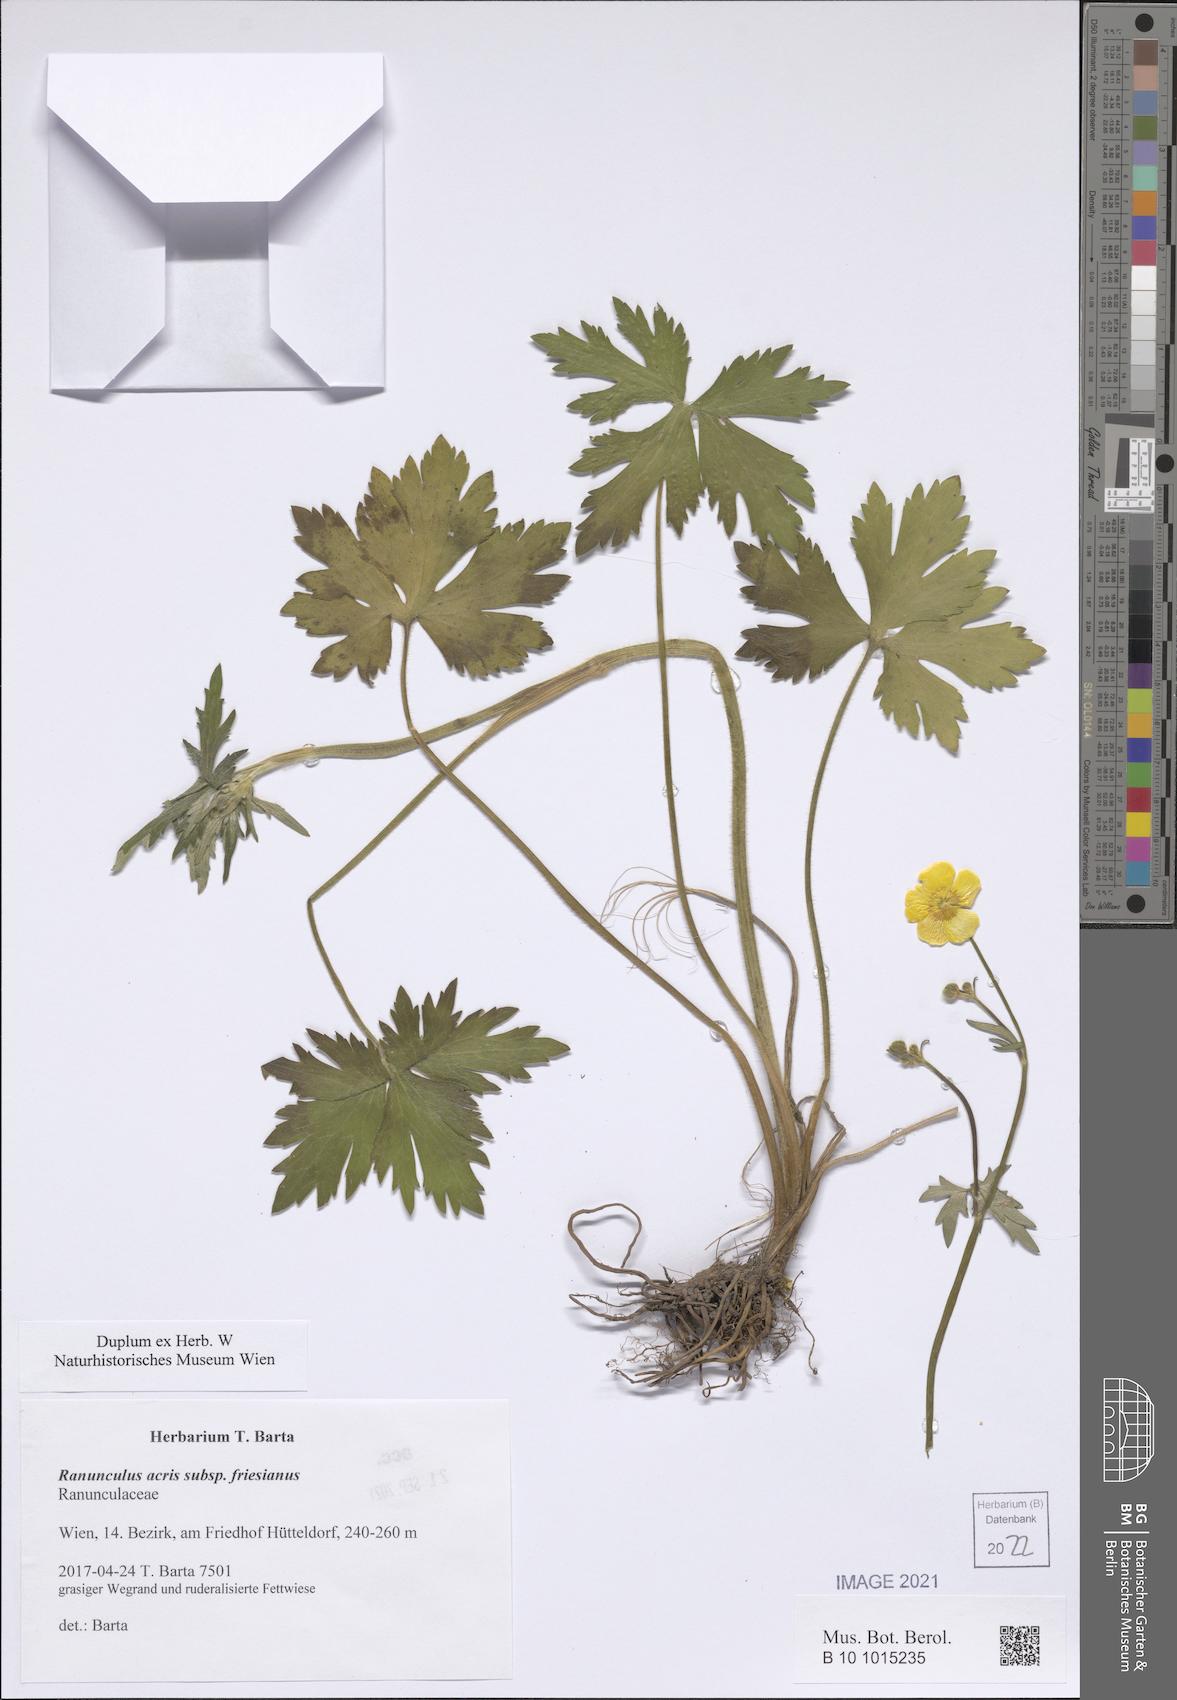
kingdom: Plantae
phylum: Tracheophyta
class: Magnoliopsida
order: Ranunculales
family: Ranunculaceae
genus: Ranunculus
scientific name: Ranunculus acris
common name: Meadow buttercup
